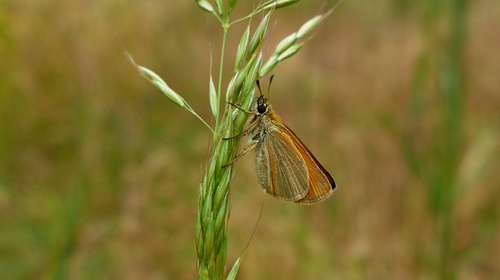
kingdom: Animalia
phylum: Arthropoda
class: Insecta
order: Lepidoptera
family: Hesperiidae
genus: Thymelicus
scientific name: Thymelicus
